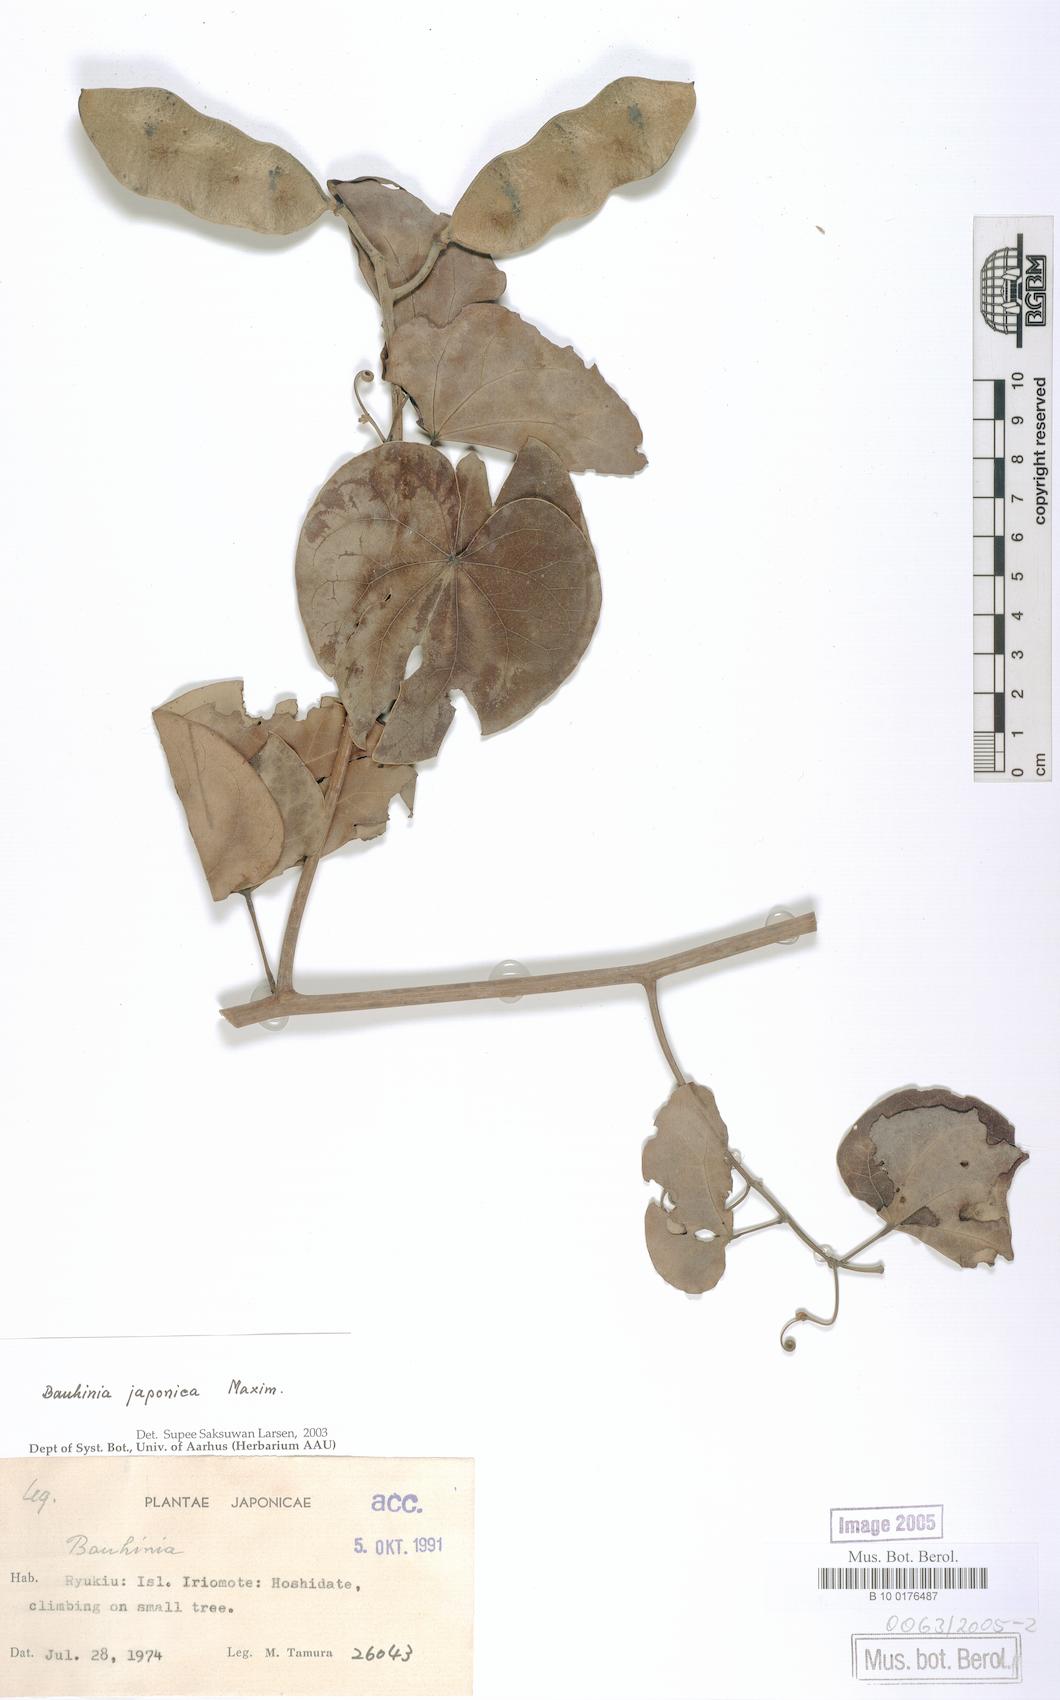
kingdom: Plantae
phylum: Tracheophyta
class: Magnoliopsida
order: Fabales
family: Fabaceae
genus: Phanera
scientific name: Phanera japonica
